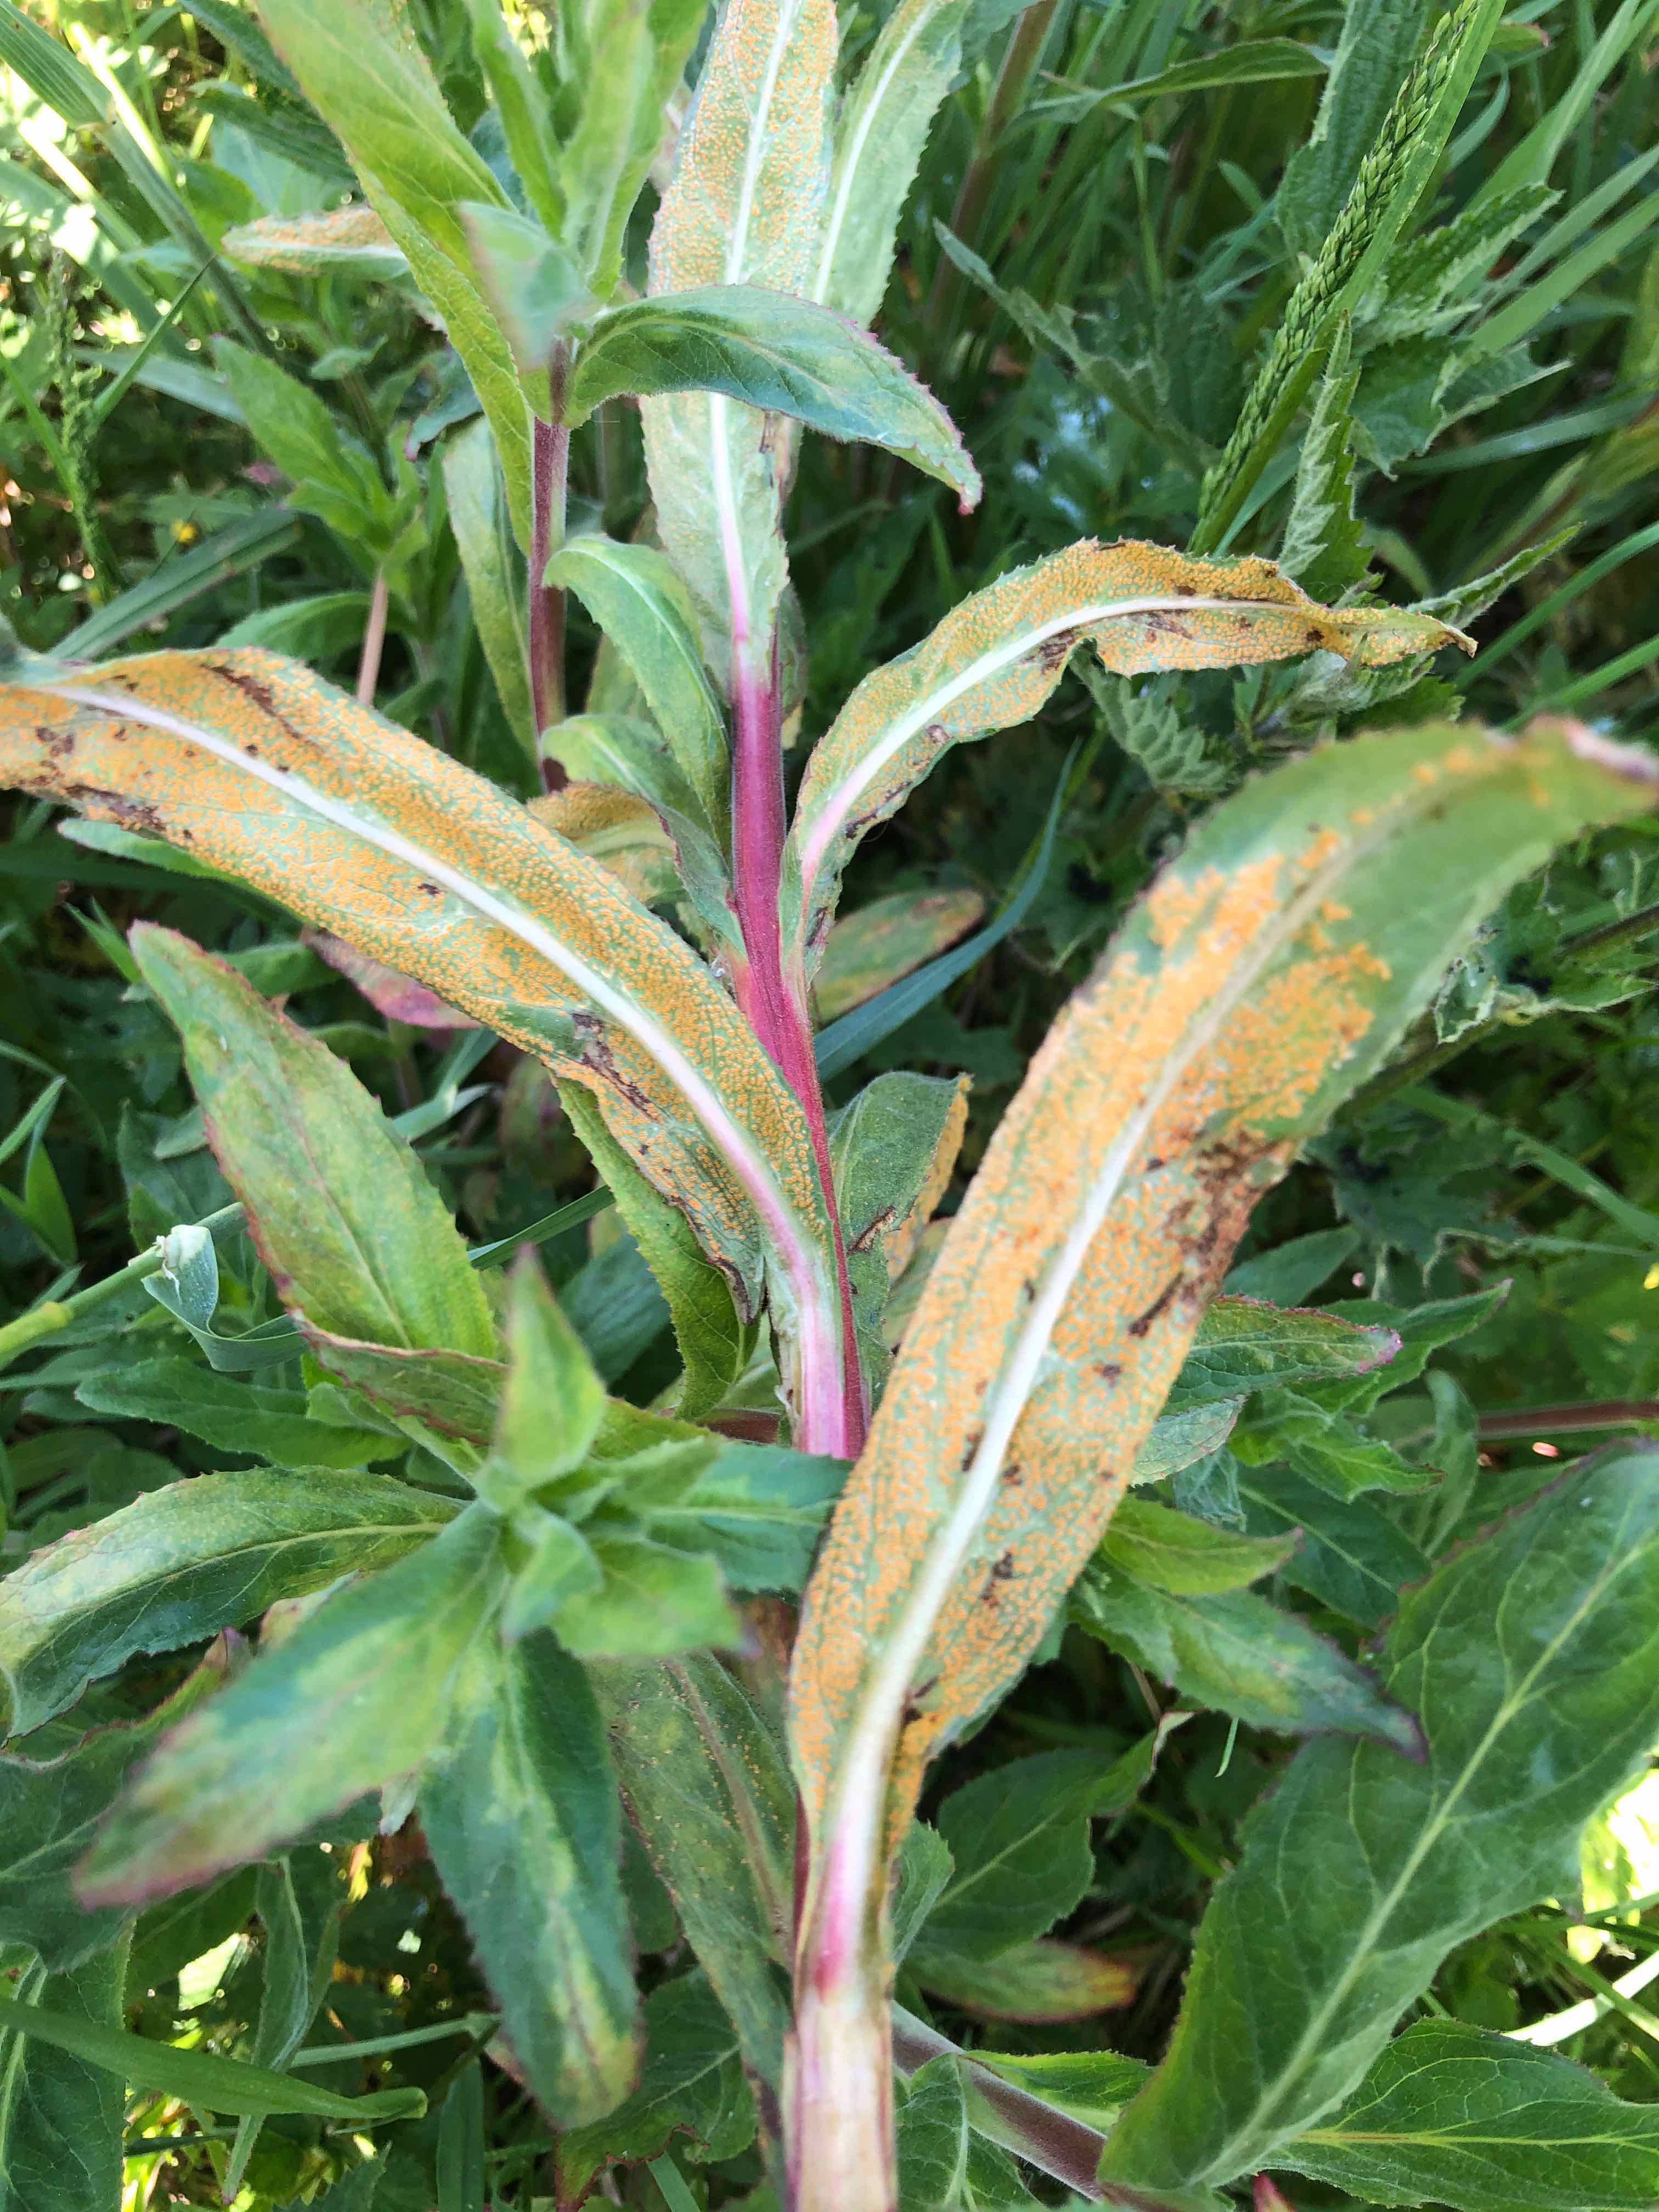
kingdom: Fungi
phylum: Basidiomycota
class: Pucciniomycetes
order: Pucciniales
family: Pucciniaceae
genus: Puccinia
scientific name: Puccinia pulverulenta
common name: dueurt-tvecellerust
